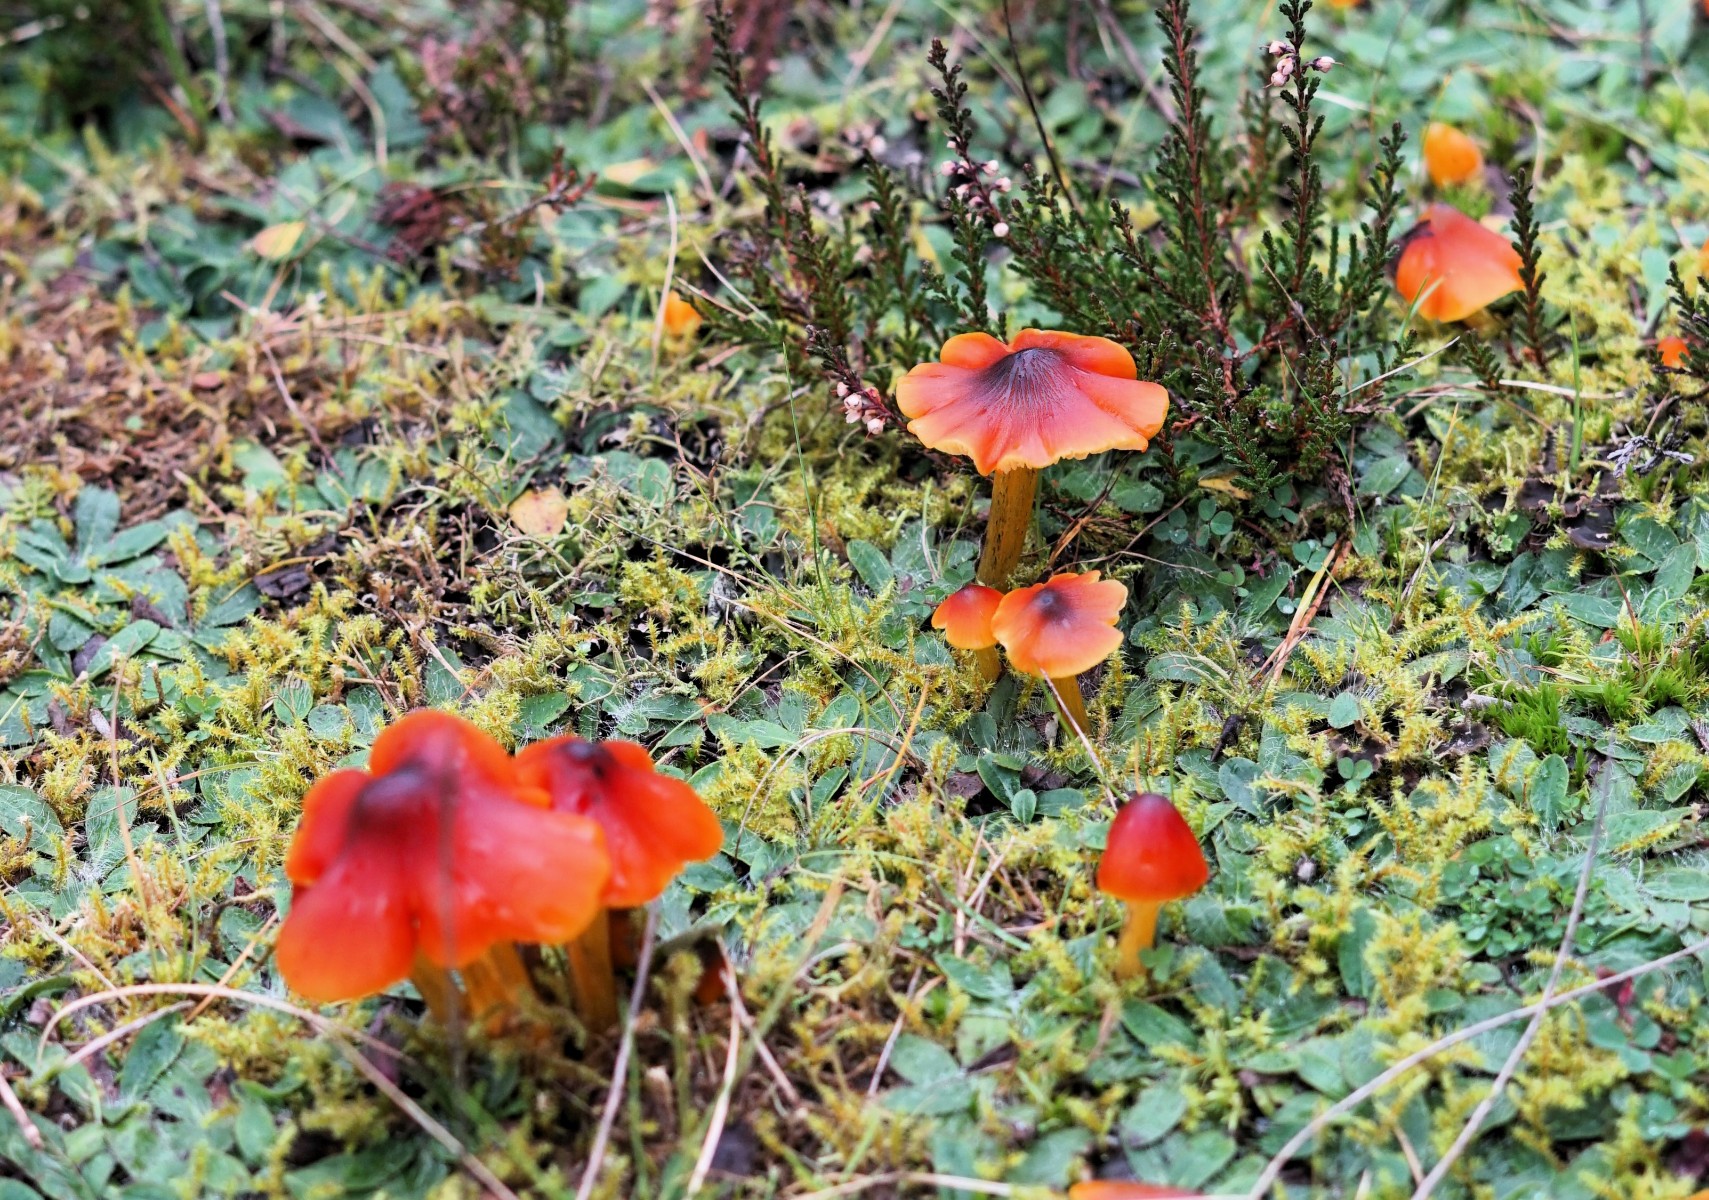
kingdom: Fungi
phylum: Basidiomycota
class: Agaricomycetes
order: Agaricales
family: Hygrophoraceae
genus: Hygrocybe
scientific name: Hygrocybe conica
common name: kegle-vokshat
